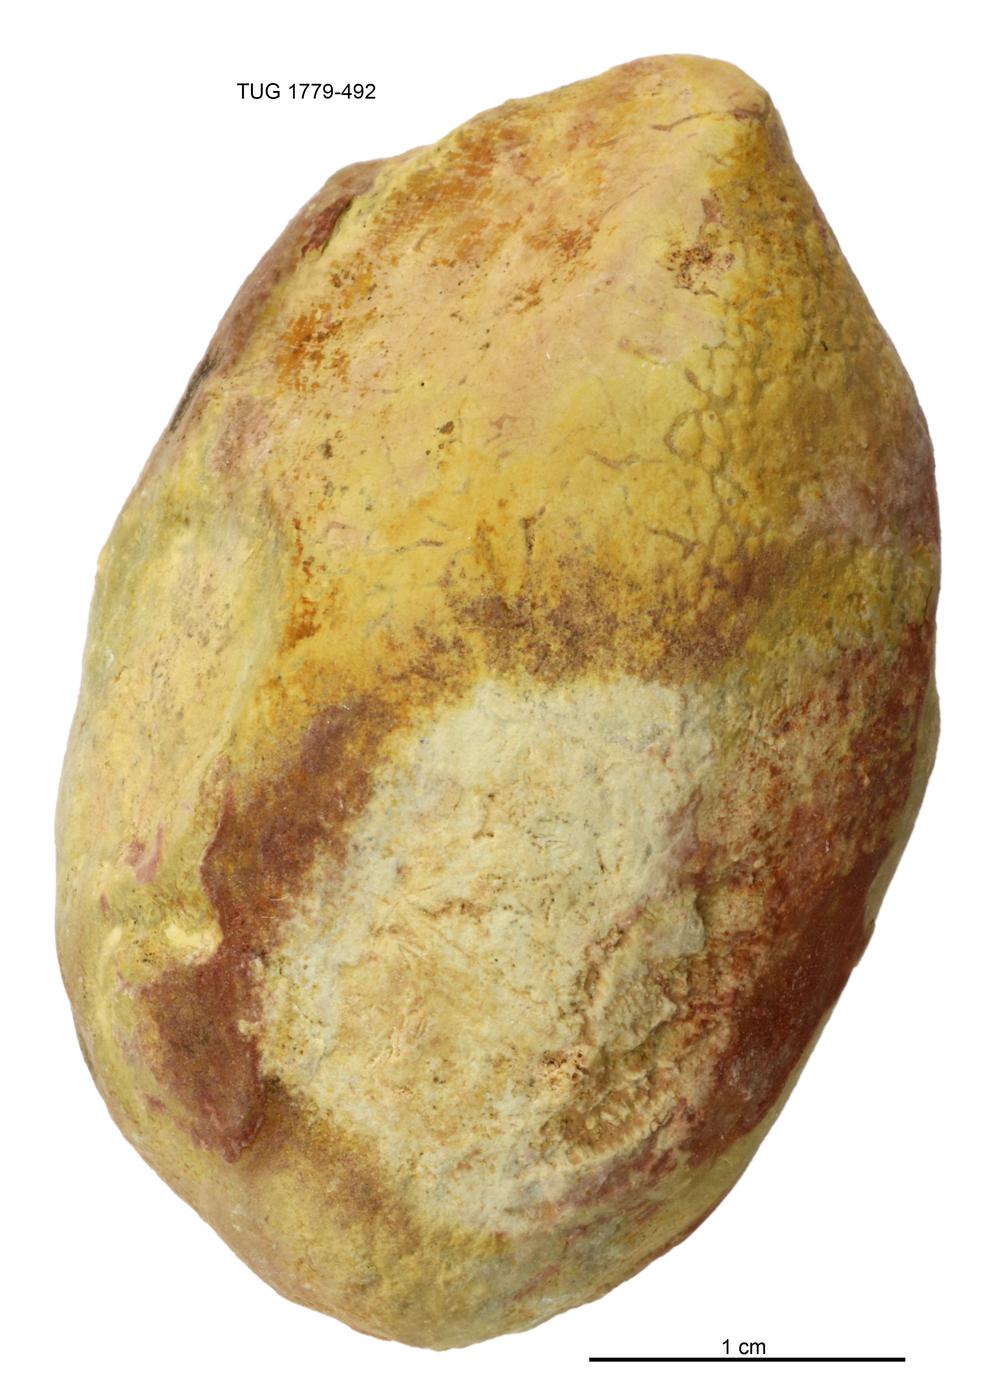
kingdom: Animalia
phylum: Mollusca
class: Bivalvia
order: Modiomorphida
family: Modiomorphidae
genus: Modiolopsis
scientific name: Modiolopsis
